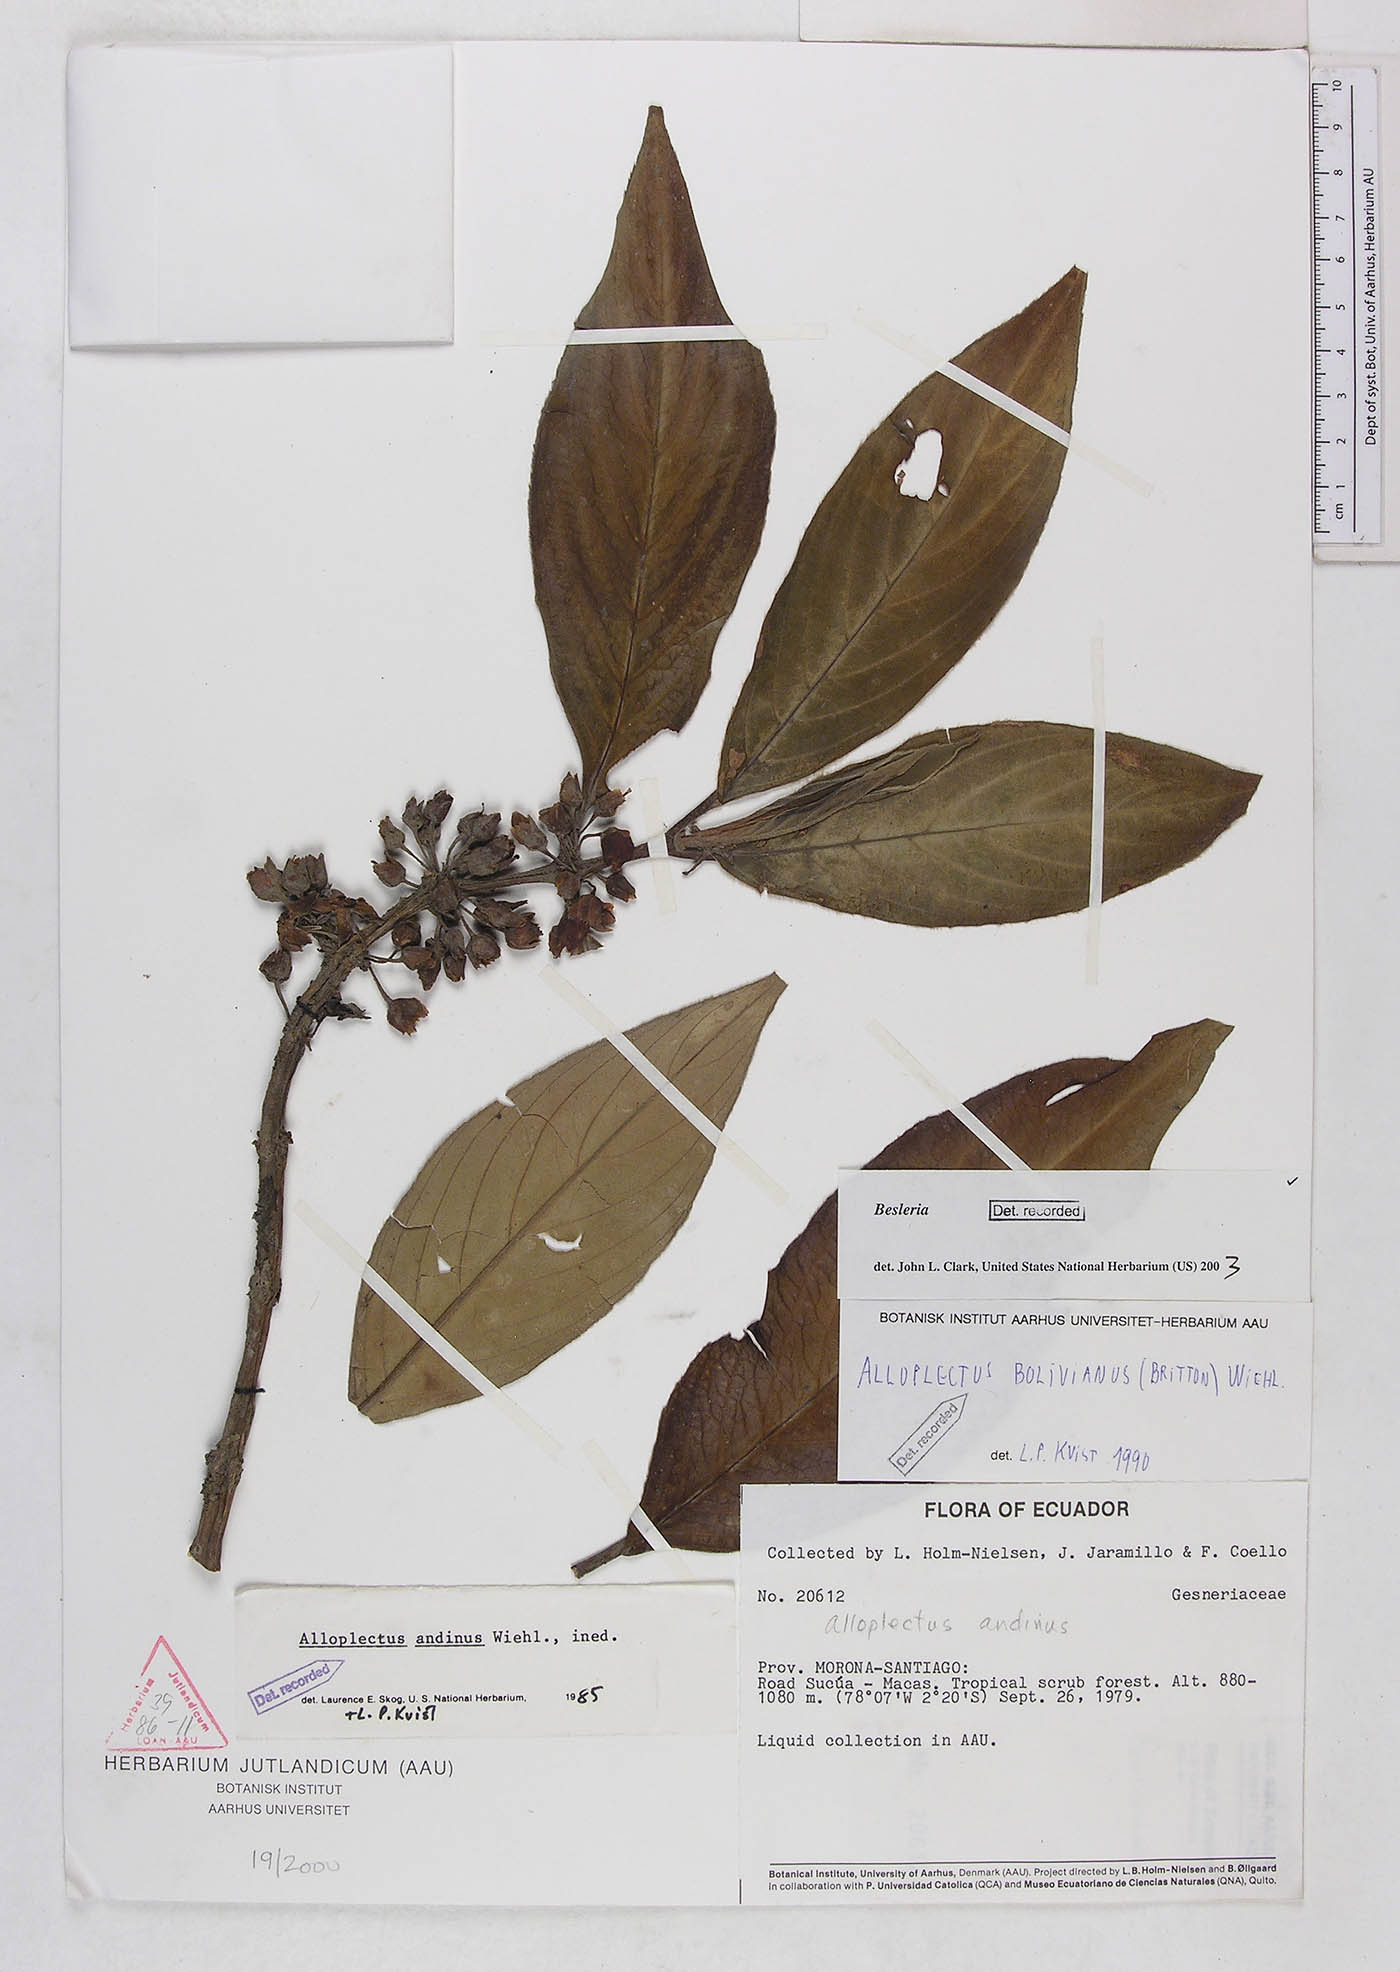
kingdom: Plantae
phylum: Tracheophyta
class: Magnoliopsida
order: Lamiales
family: Gesneriaceae
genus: Besleria
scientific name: Besleria
